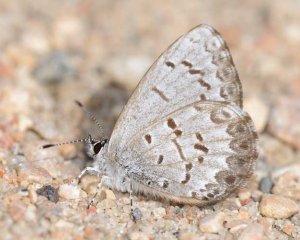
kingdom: Animalia
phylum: Arthropoda
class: Insecta
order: Lepidoptera
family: Lycaenidae
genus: Celastrina
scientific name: Celastrina lucia
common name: Northern Spring Azure
